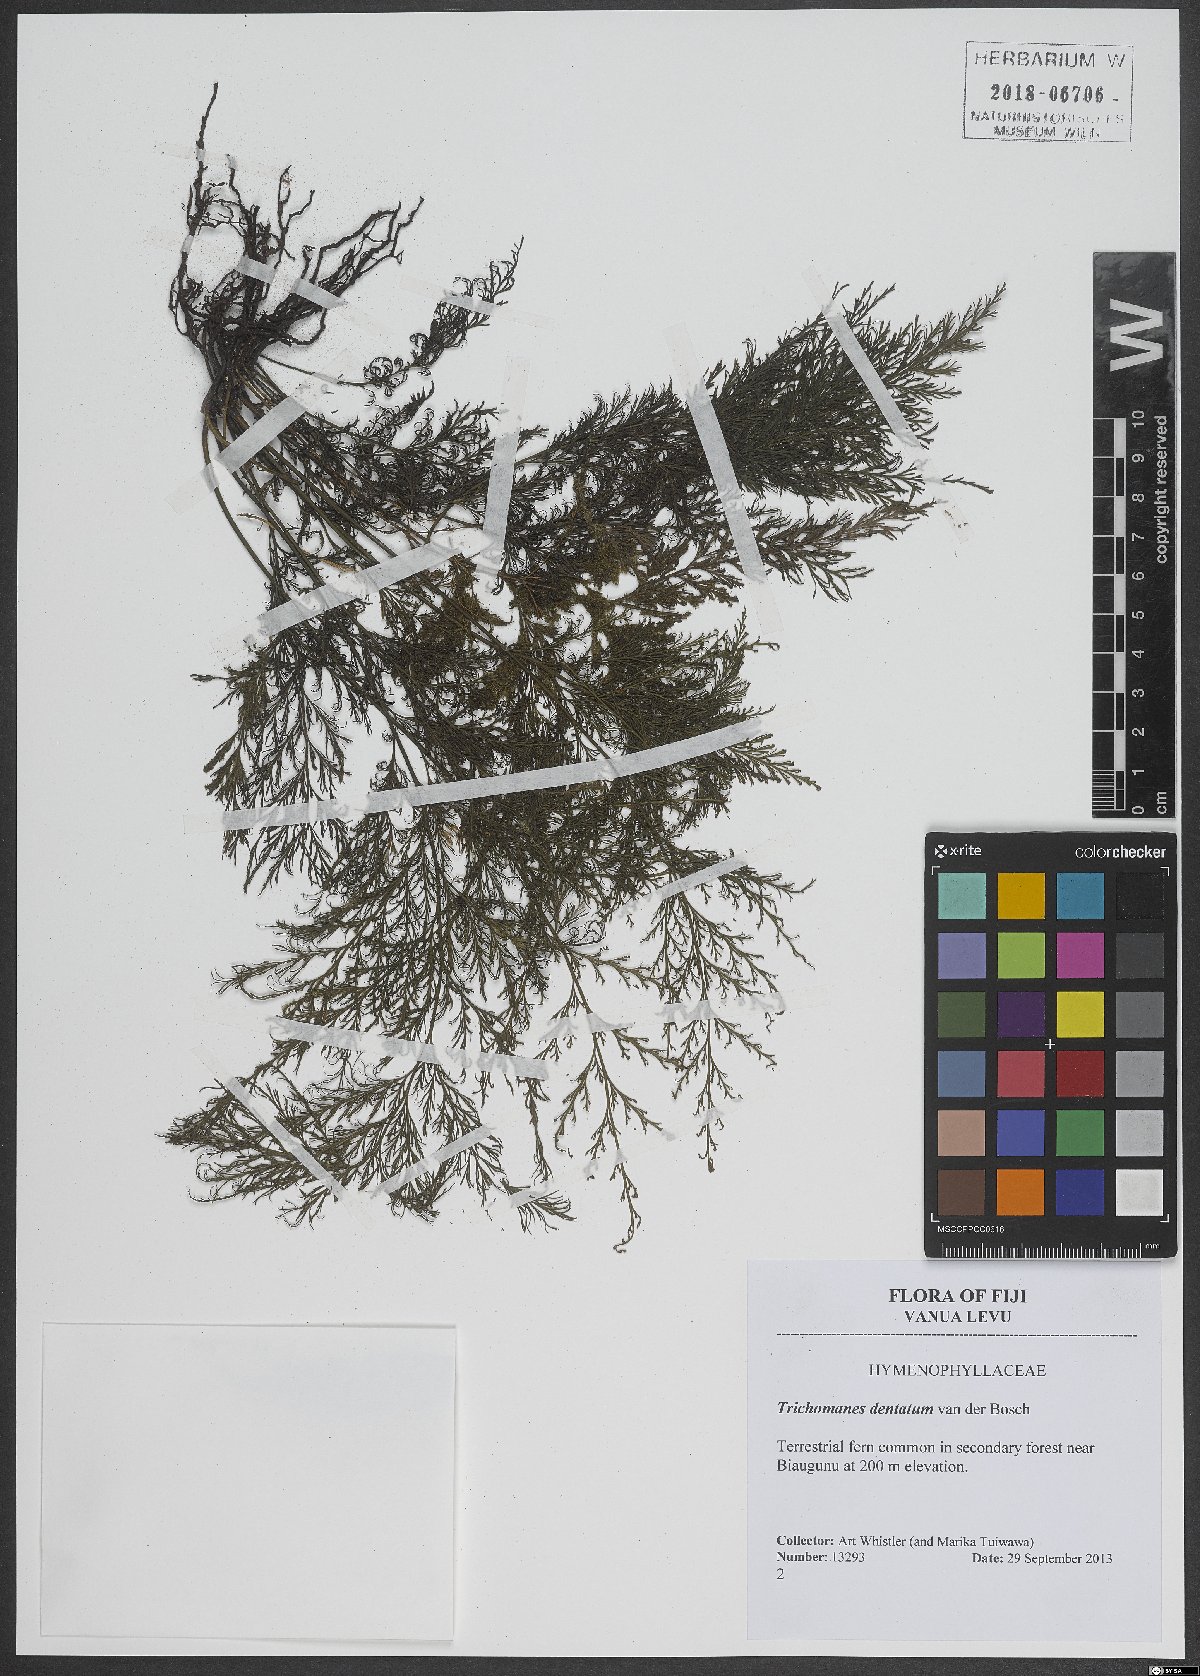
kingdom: Plantae
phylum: Tracheophyta
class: Polypodiopsida
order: Hymenophyllales
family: Hymenophyllaceae
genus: Abrodictyum
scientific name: Abrodictyum dentatum
